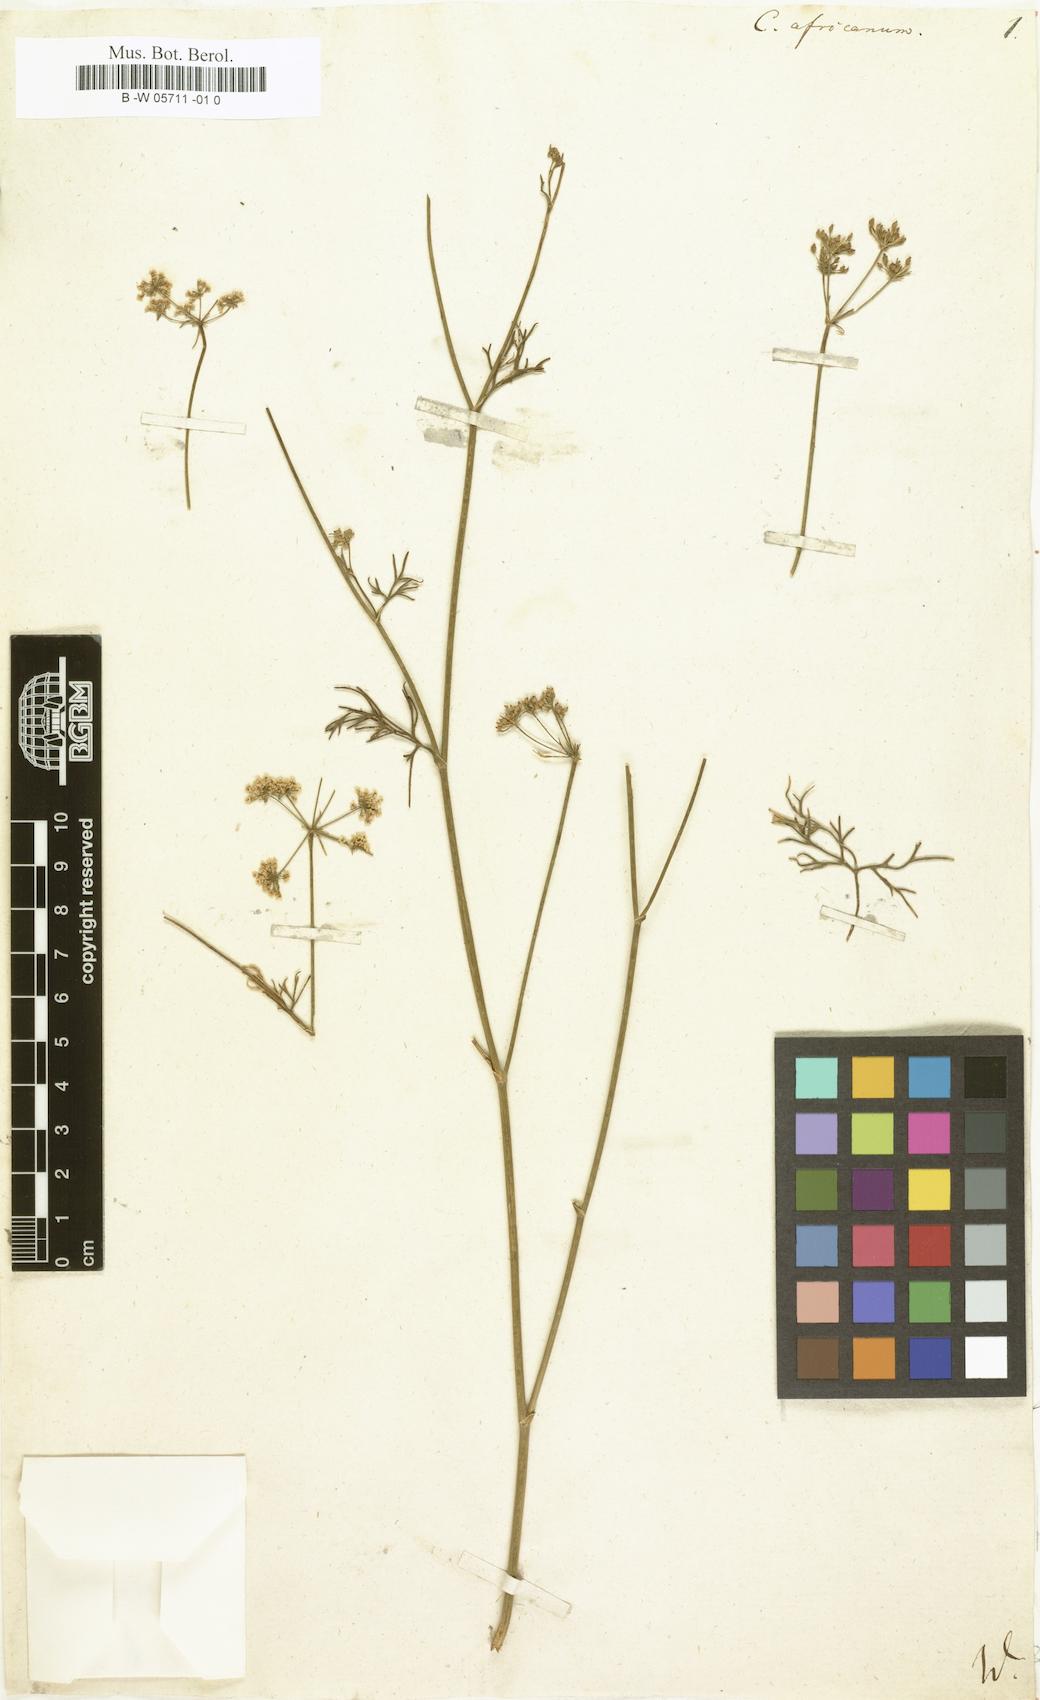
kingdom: Plantae
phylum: Tracheophyta
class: Magnoliopsida
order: Apiales
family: Apiaceae
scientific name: Apiaceae
